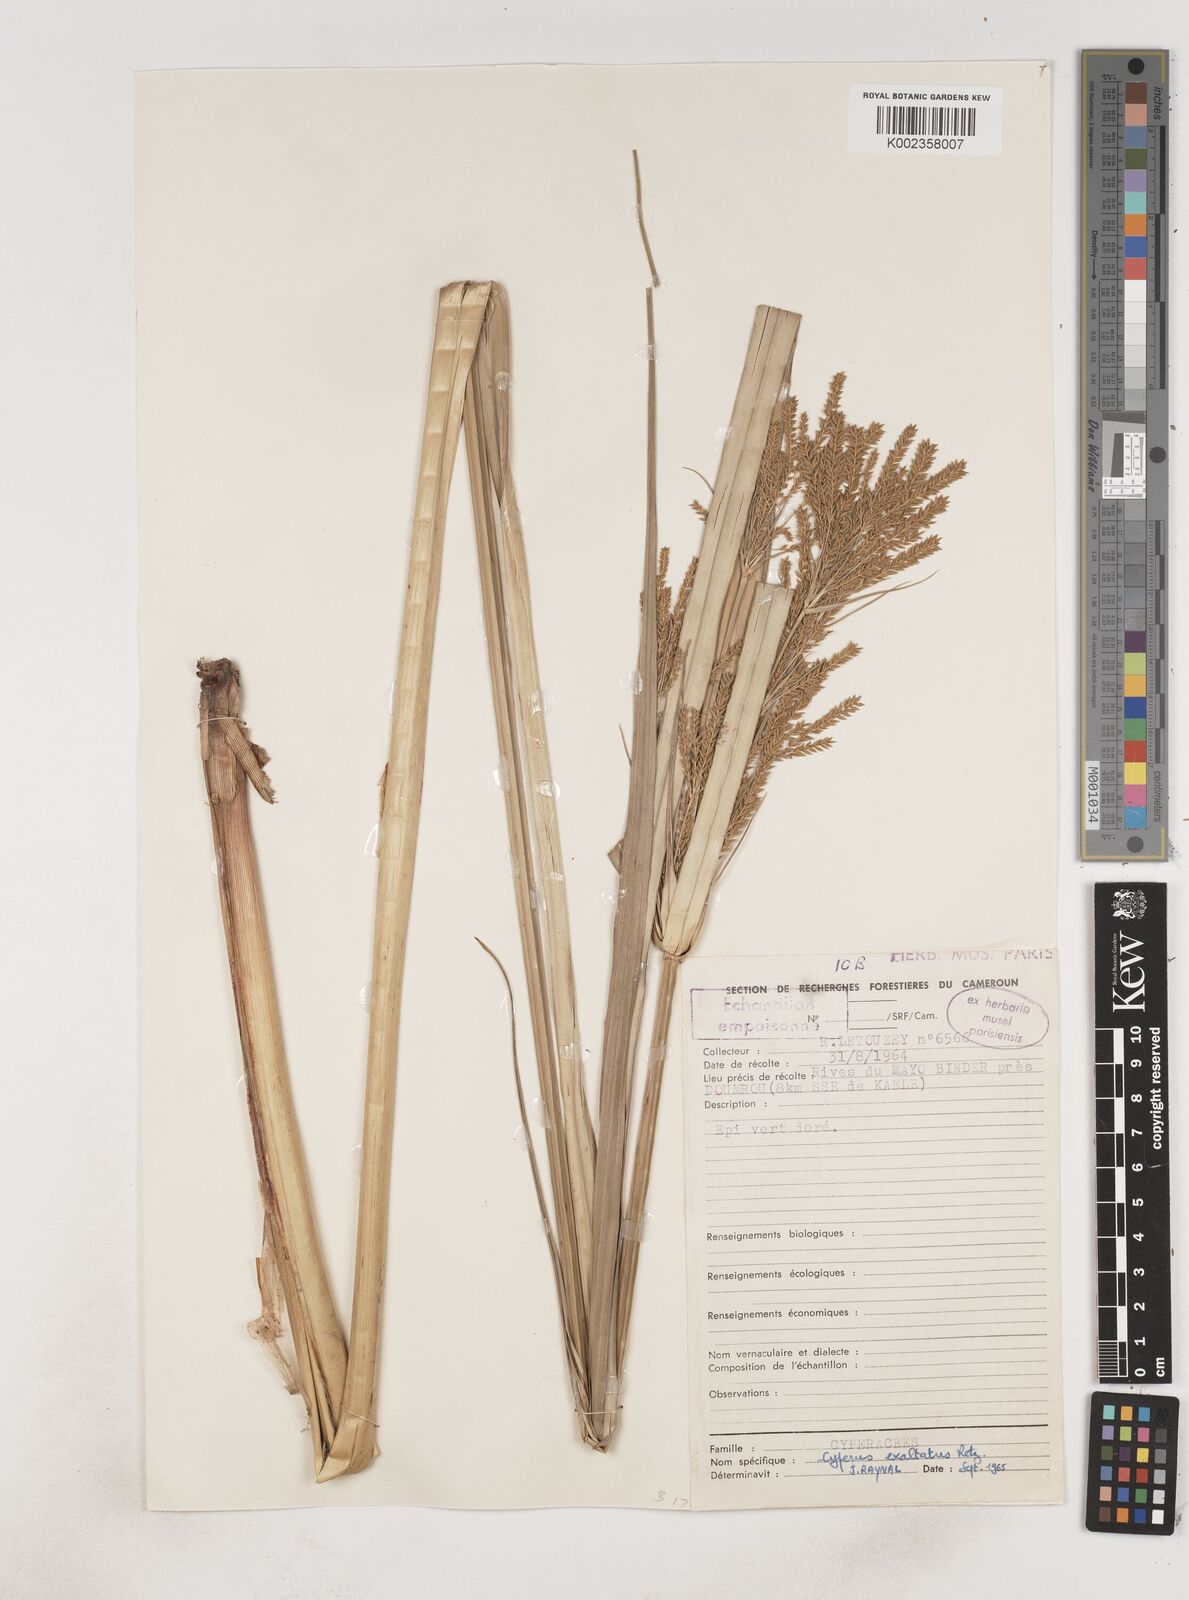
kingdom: Plantae
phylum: Tracheophyta
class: Liliopsida
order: Poales
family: Cyperaceae
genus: Cyperus
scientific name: Cyperus exaltatus
